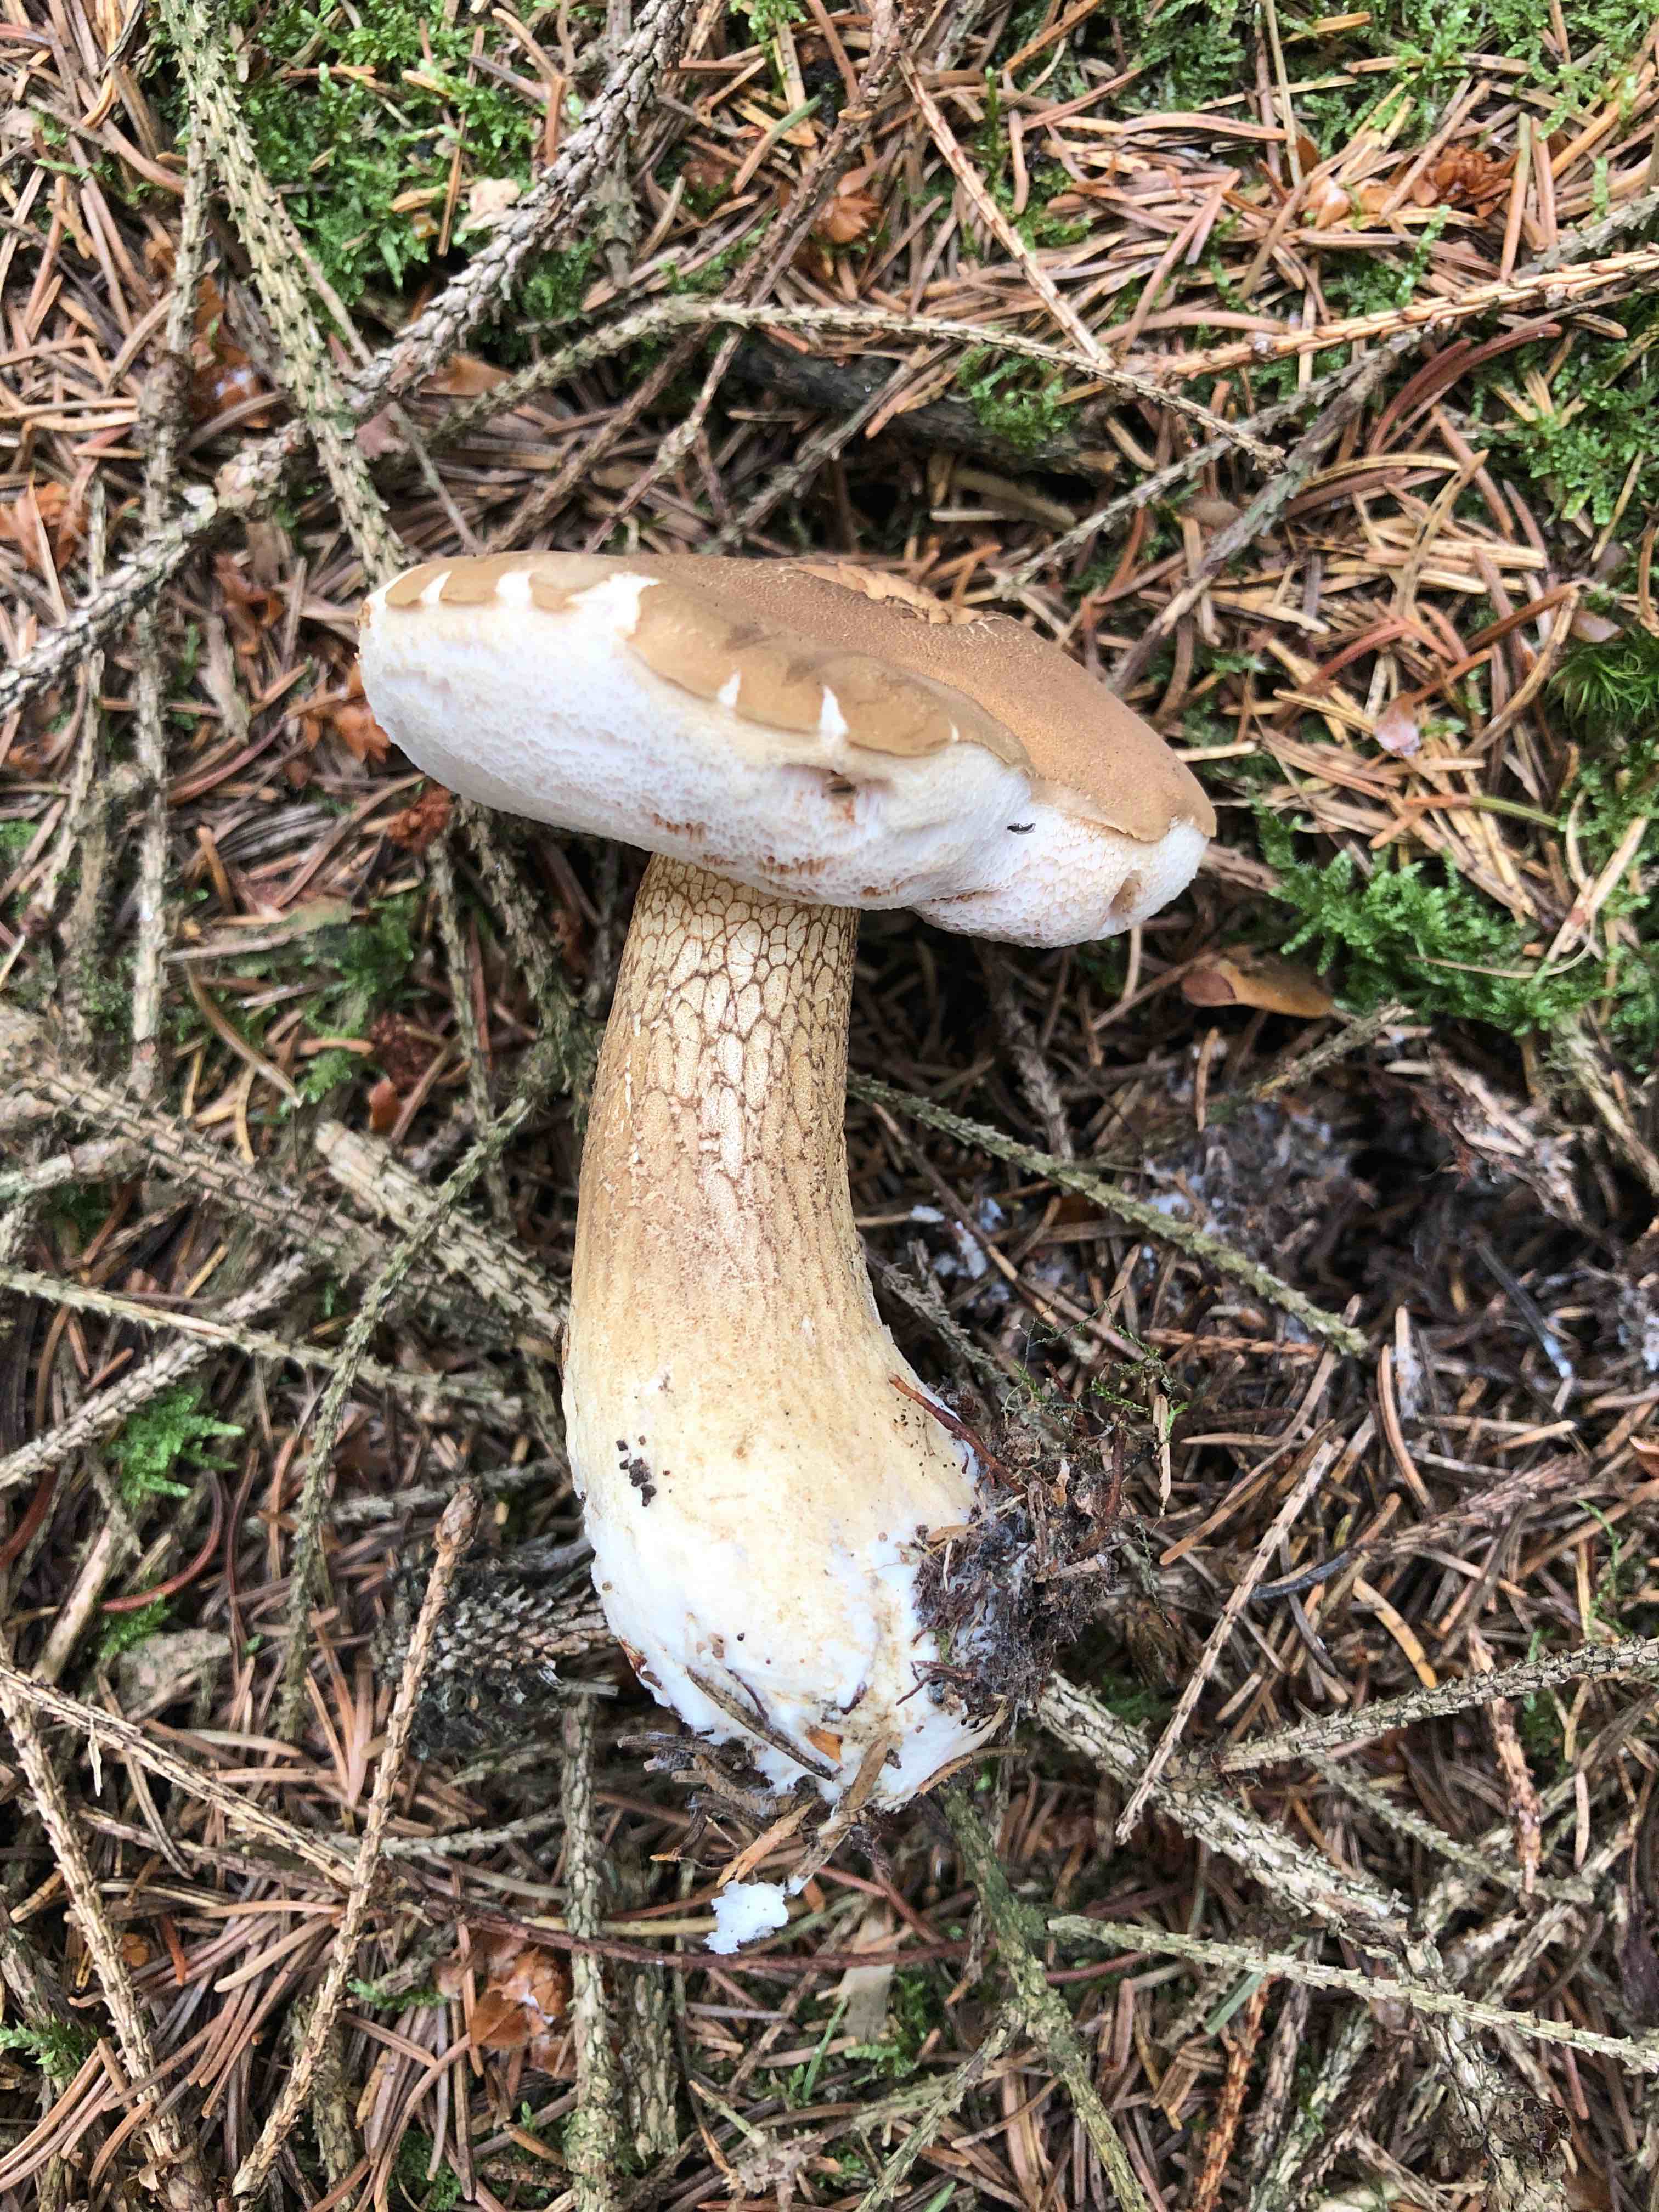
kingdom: Fungi
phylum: Basidiomycota
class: Agaricomycetes
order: Boletales
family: Boletaceae
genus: Tylopilus
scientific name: Tylopilus felleus
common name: galderørhat
